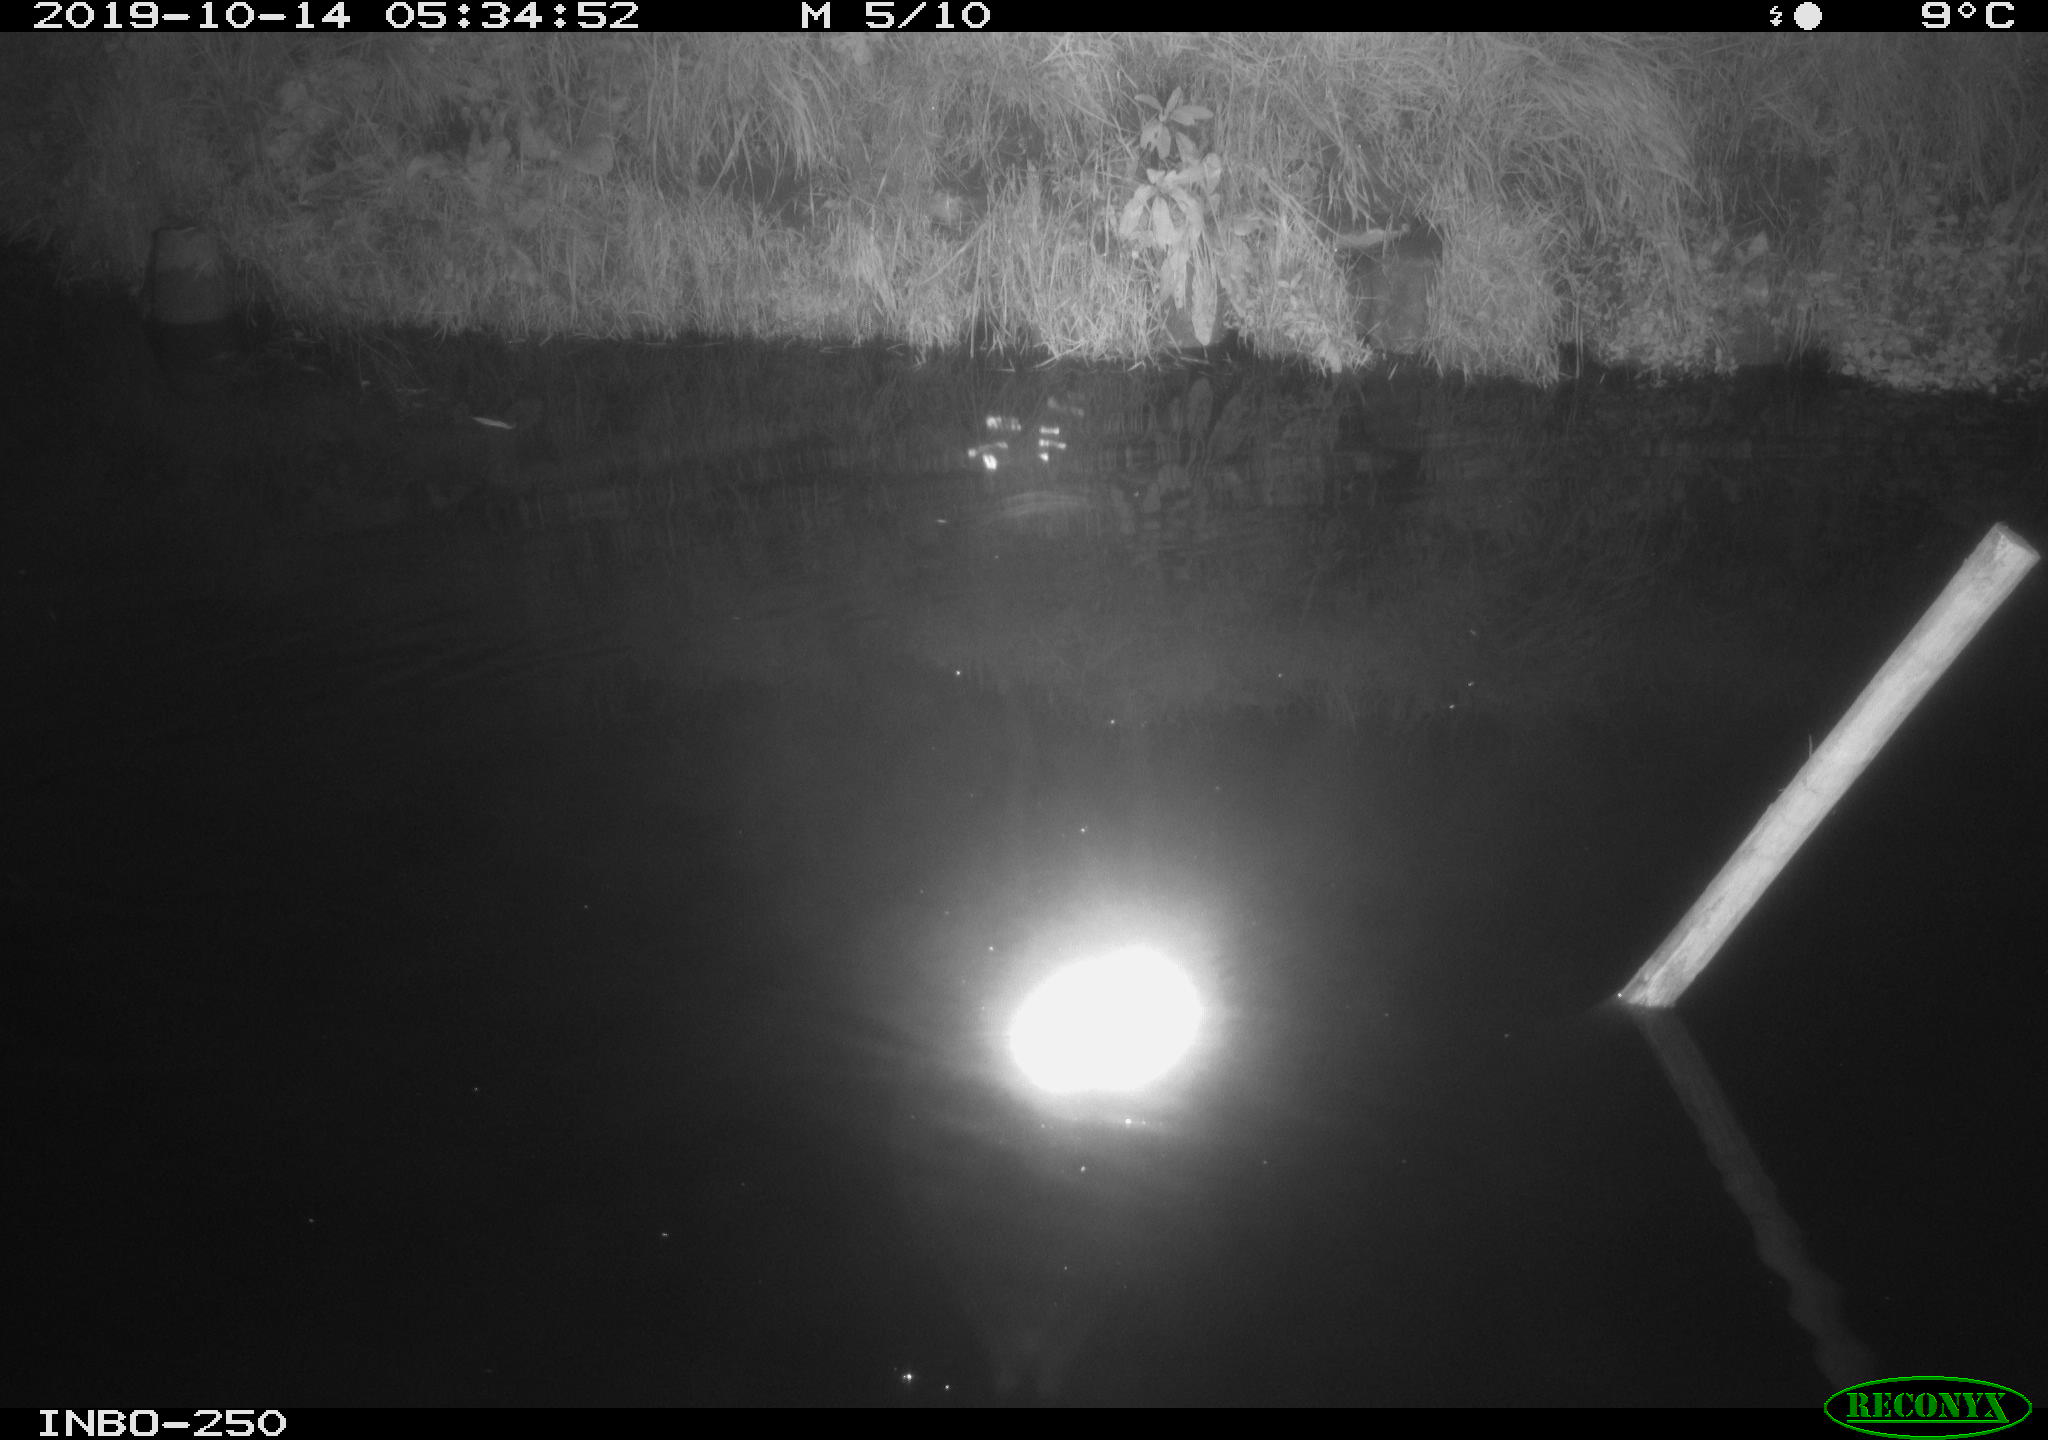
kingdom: Animalia
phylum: Chordata
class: Aves
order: Anseriformes
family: Anatidae
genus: Anas
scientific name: Anas platyrhynchos
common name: Mallard
